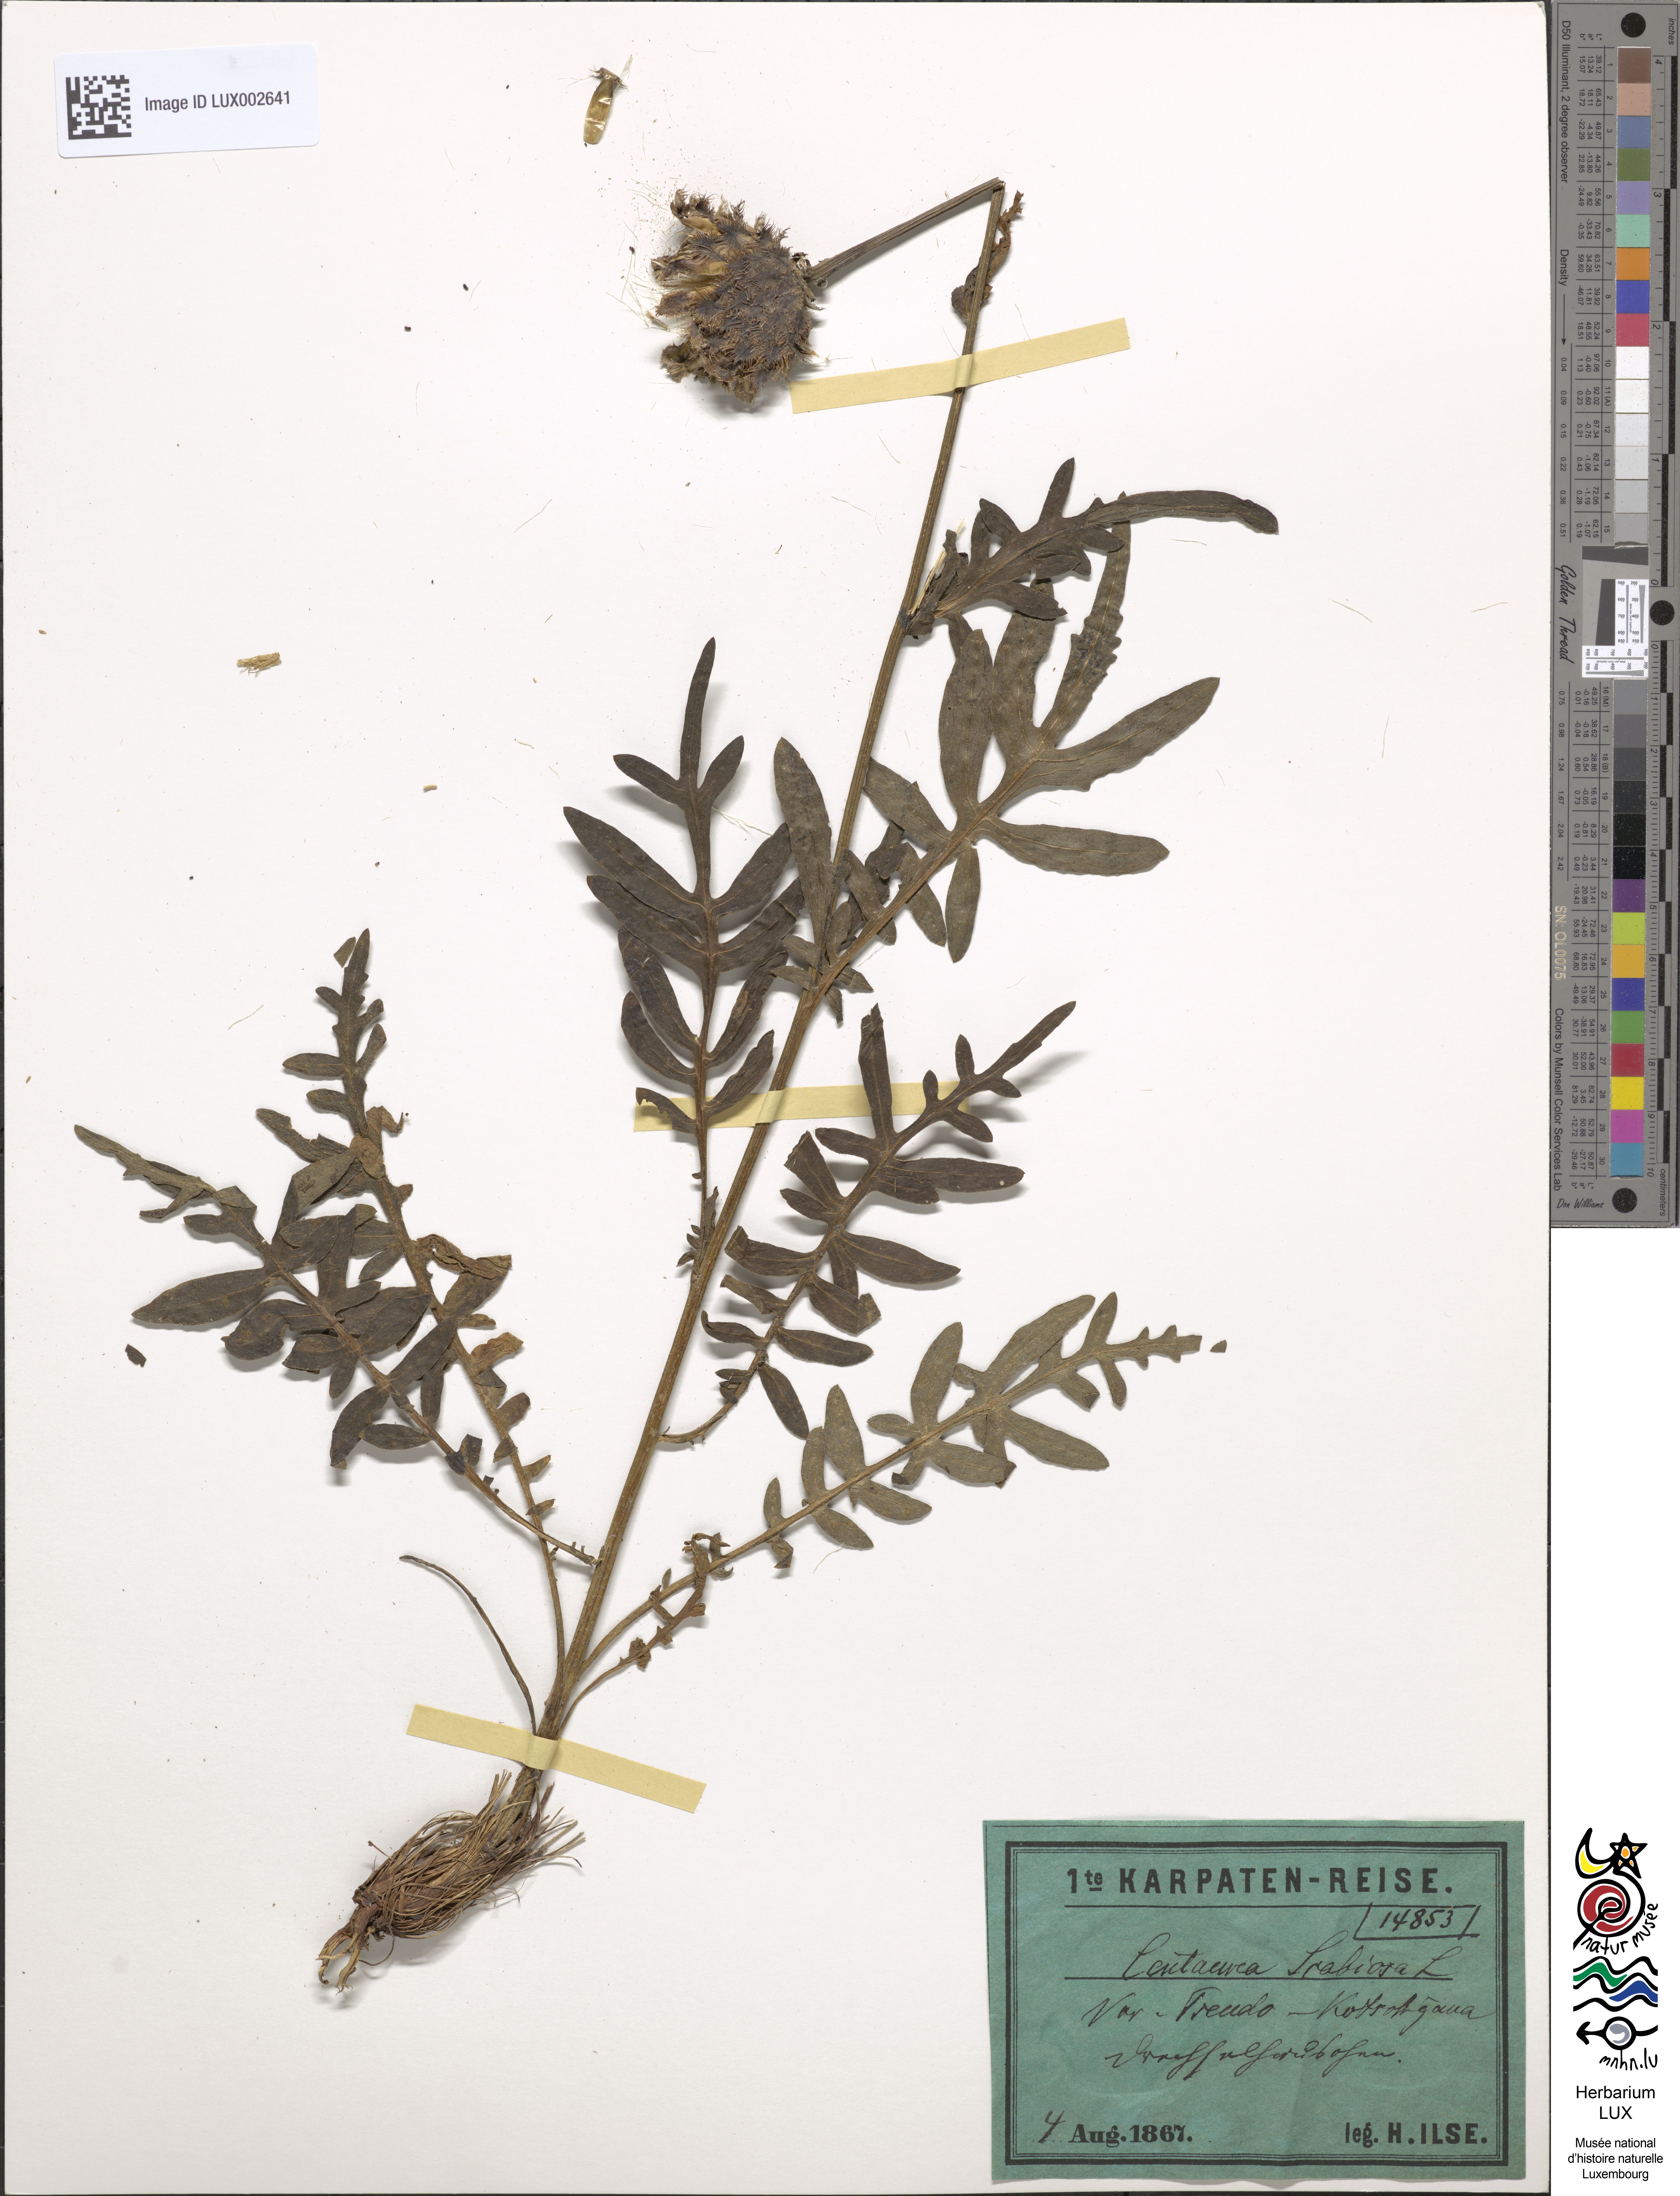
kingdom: Plantae
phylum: Tracheophyta
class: Magnoliopsida
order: Asterales
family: Asteraceae
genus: Centaurea
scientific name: Centaurea scabiosa
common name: Greater knapweed
